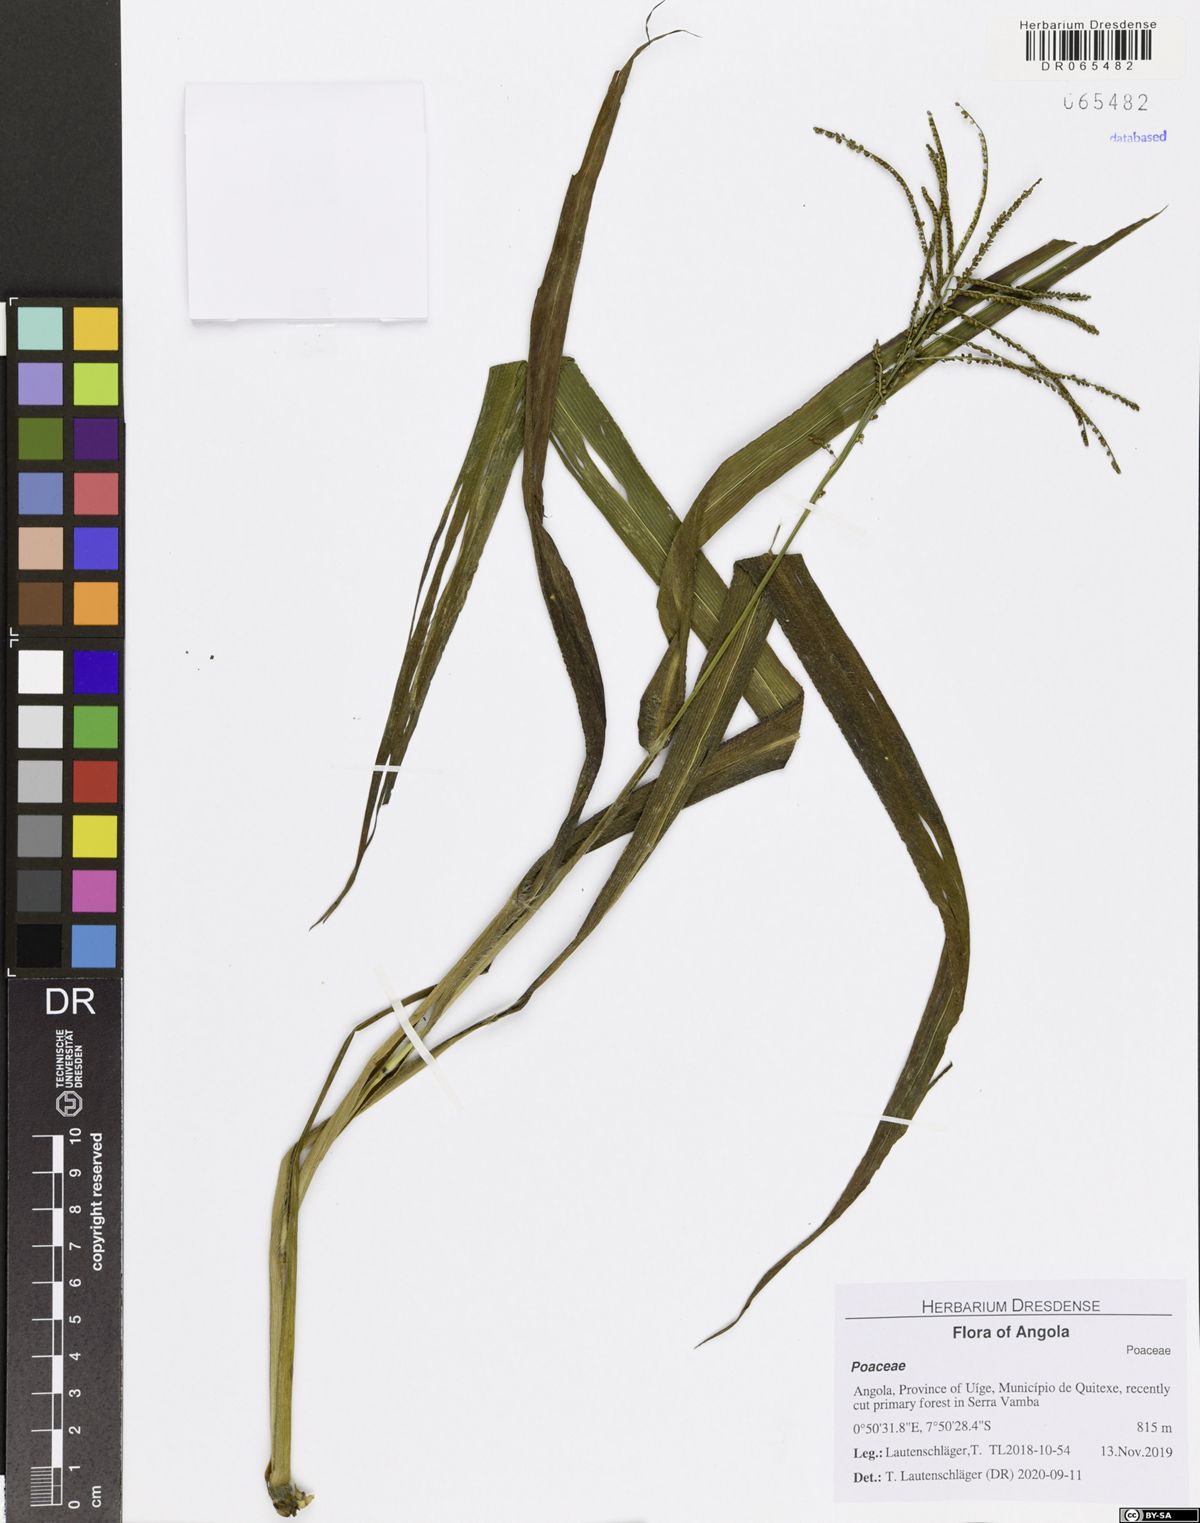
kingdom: Plantae
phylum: Tracheophyta
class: Liliopsida
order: Poales
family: Poaceae
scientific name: Poaceae
